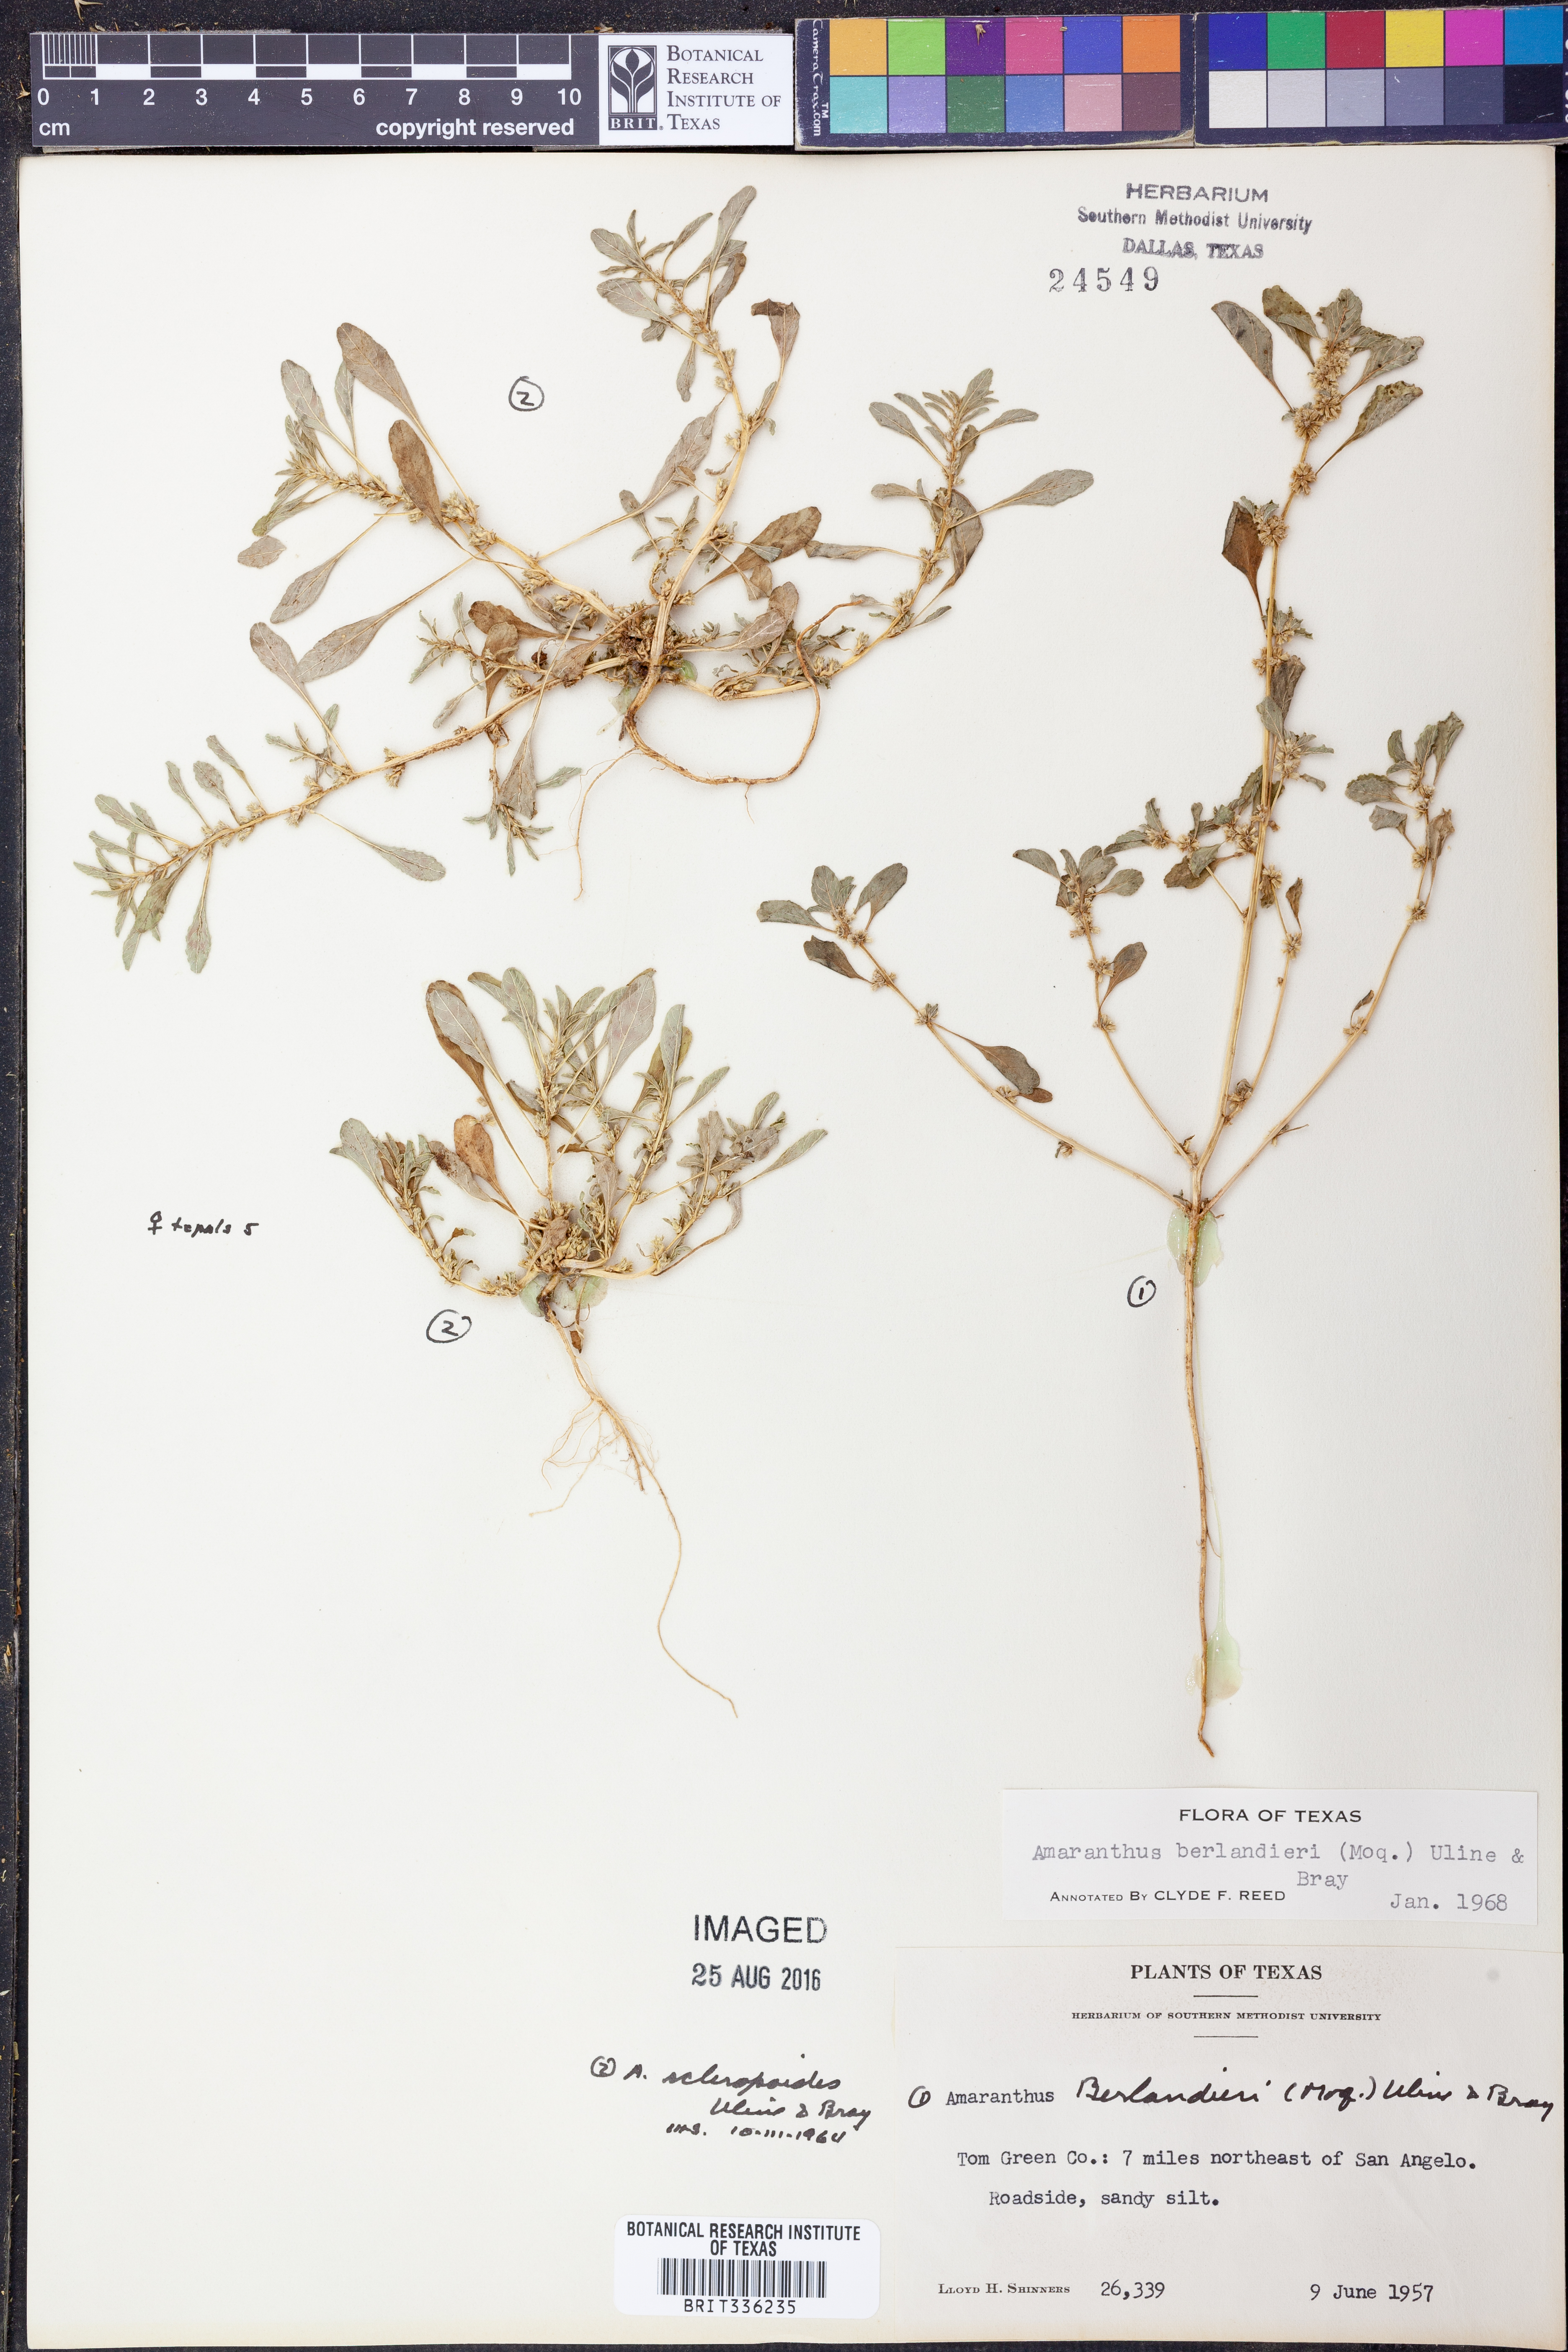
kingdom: Plantae
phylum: Tracheophyta
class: Magnoliopsida
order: Caryophyllales
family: Amaranthaceae
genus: Amaranthus
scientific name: Amaranthus polygonoides
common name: Tropical amaranth
